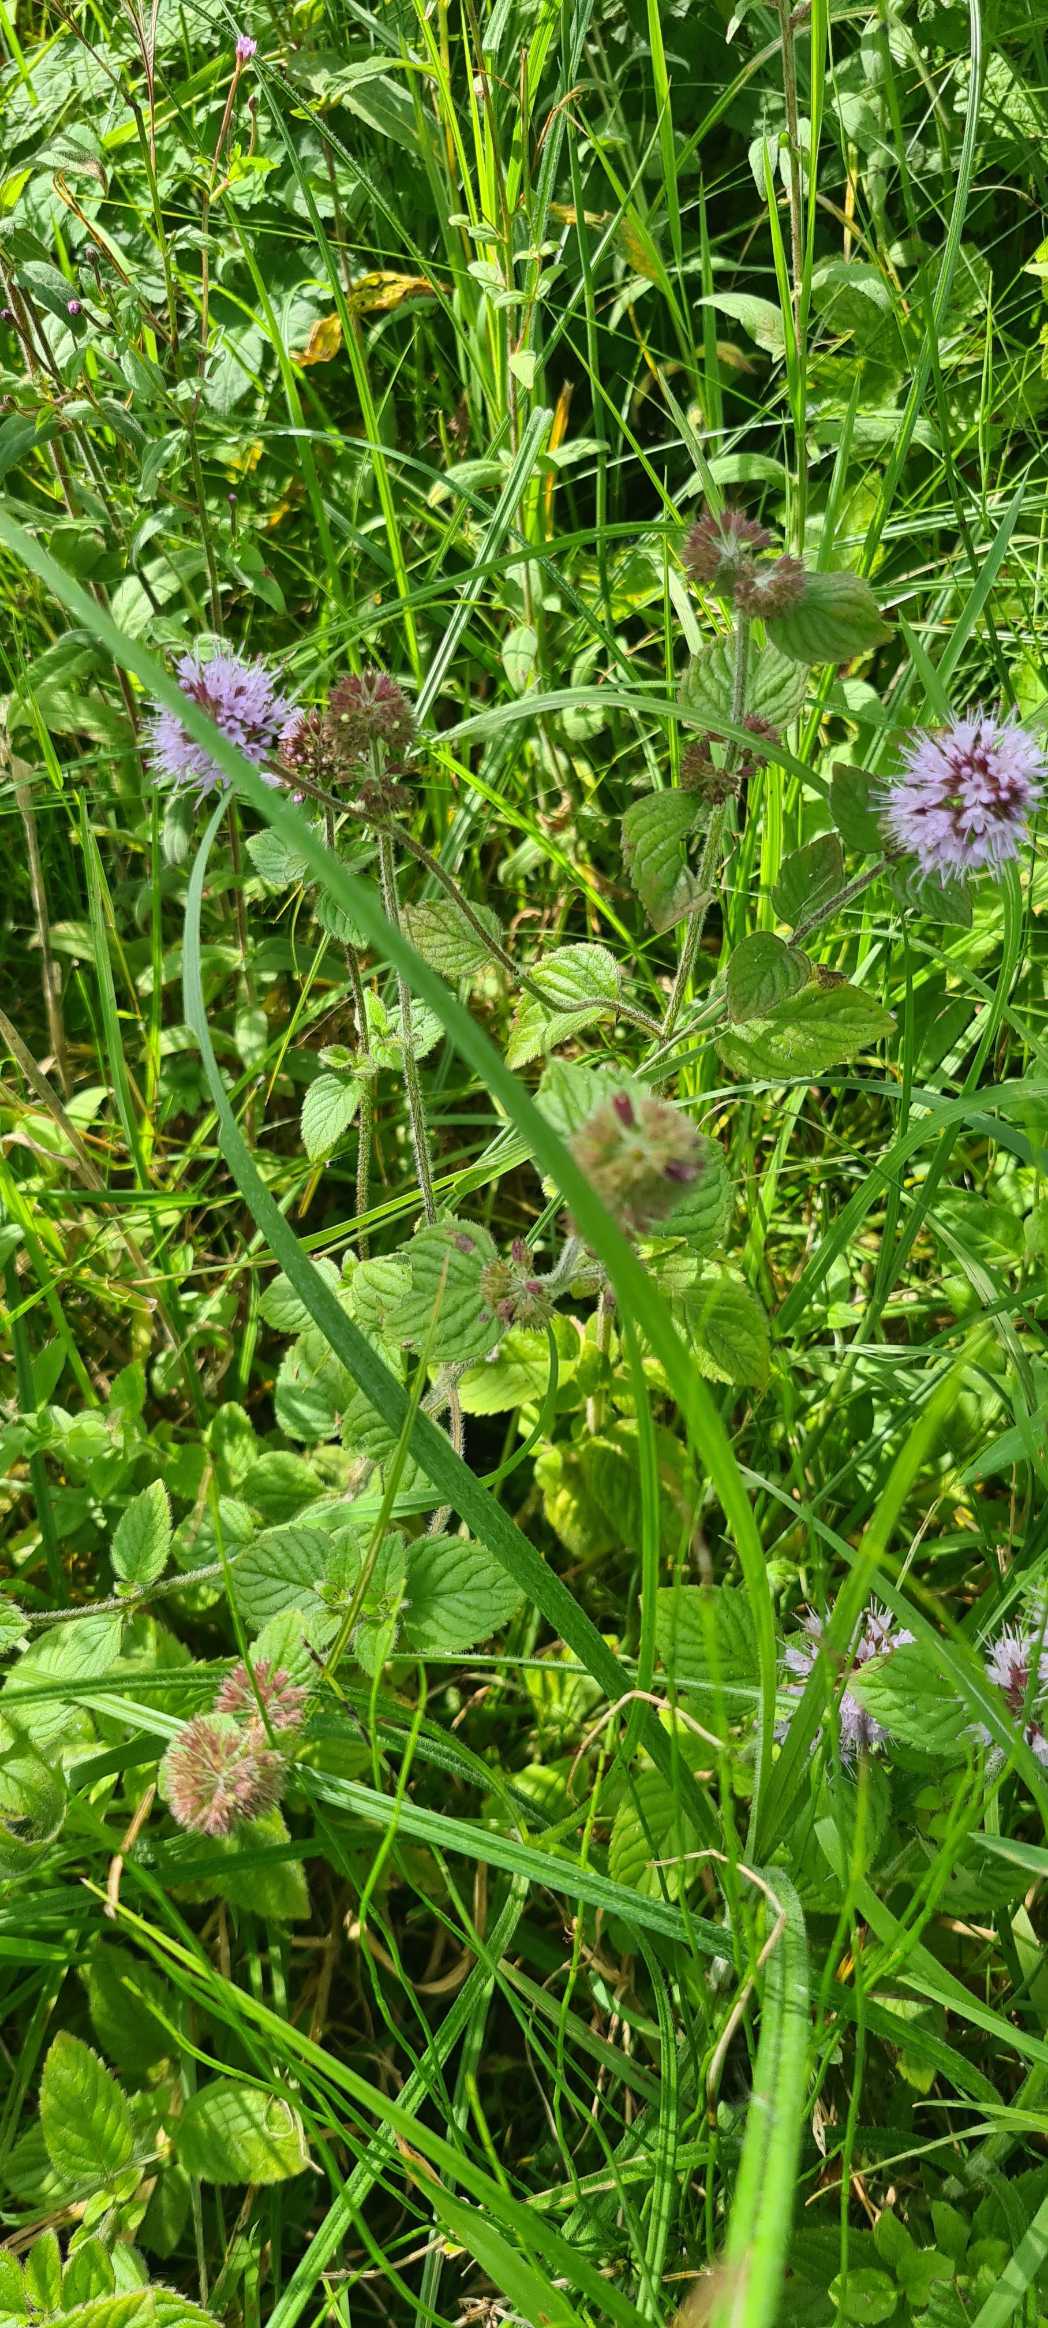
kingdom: Plantae
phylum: Tracheophyta
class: Magnoliopsida
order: Lamiales
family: Lamiaceae
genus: Mentha
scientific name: Mentha aquatica
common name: Vand-mynte
